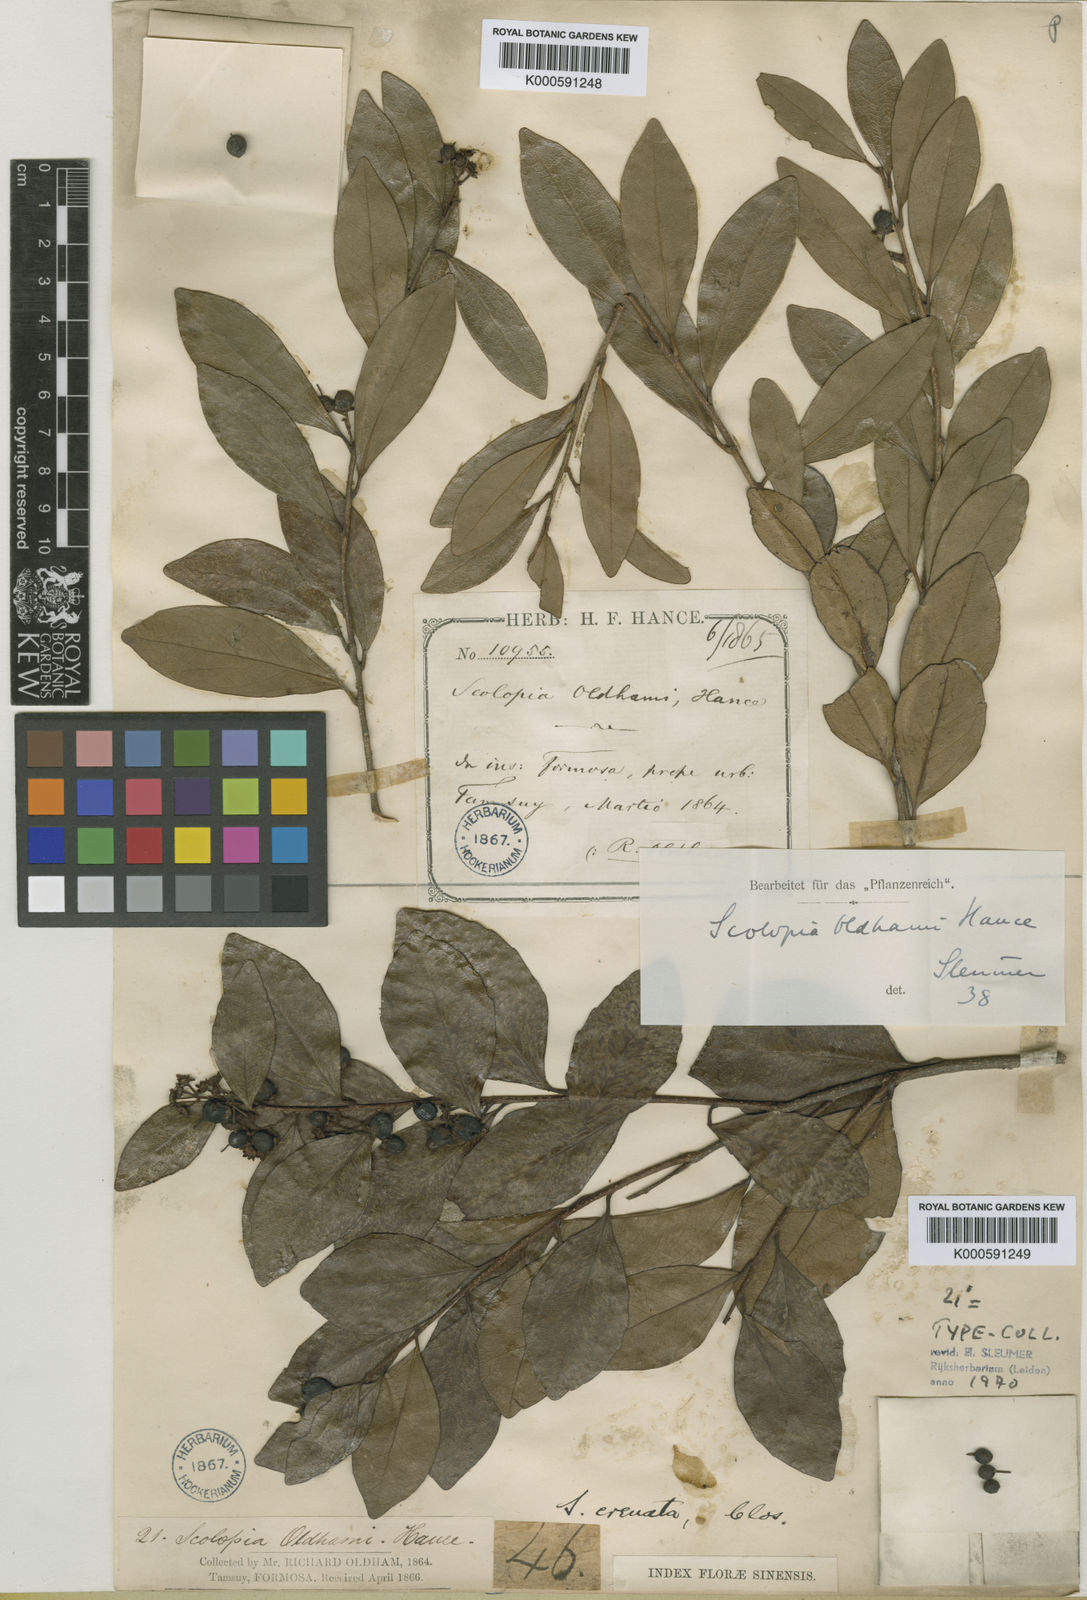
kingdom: Plantae
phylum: Tracheophyta
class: Magnoliopsida
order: Malpighiales
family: Salicaceae
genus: Scolopia
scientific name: Scolopia oldhamii
